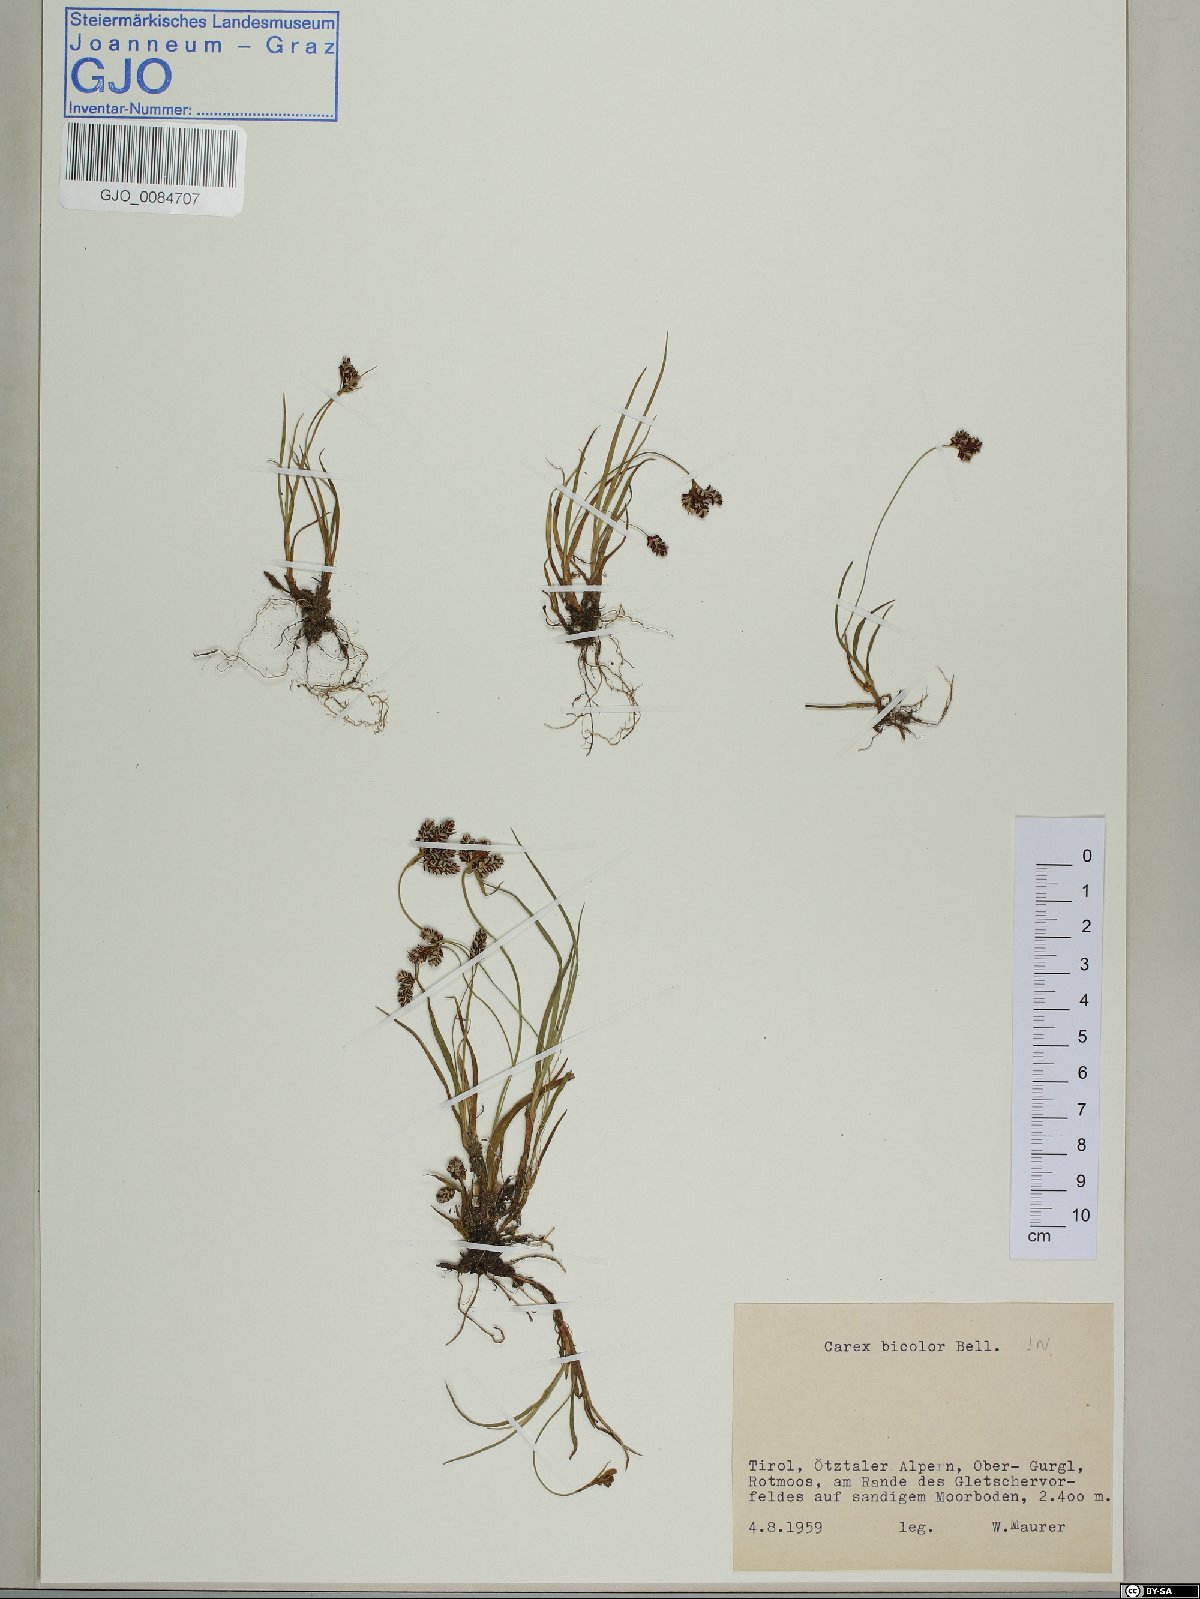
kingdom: Plantae
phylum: Tracheophyta
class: Liliopsida
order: Poales
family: Cyperaceae
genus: Carex
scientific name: Carex bicolor
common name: Bicoloured sedge
